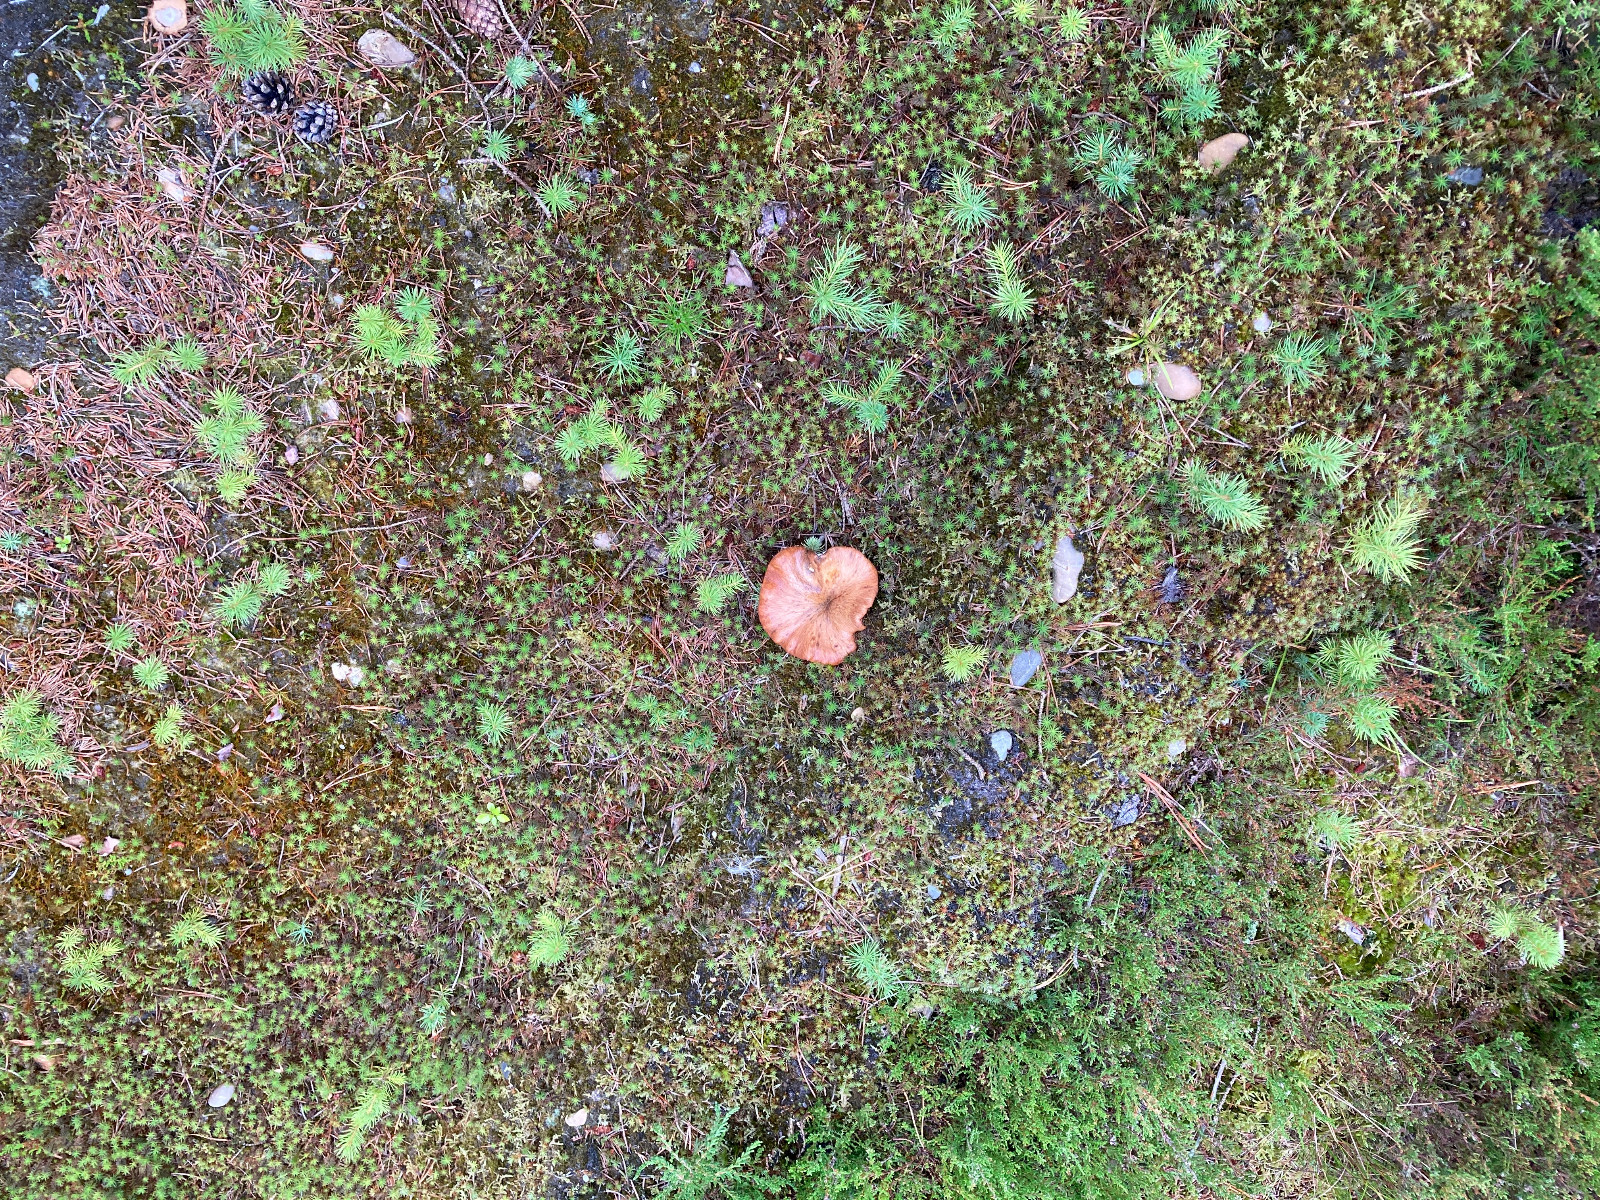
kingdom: Fungi
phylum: Basidiomycota
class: Agaricomycetes
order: Boletales
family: Suillaceae
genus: Suillus
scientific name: Suillus luteus
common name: brungul slimrørhat
